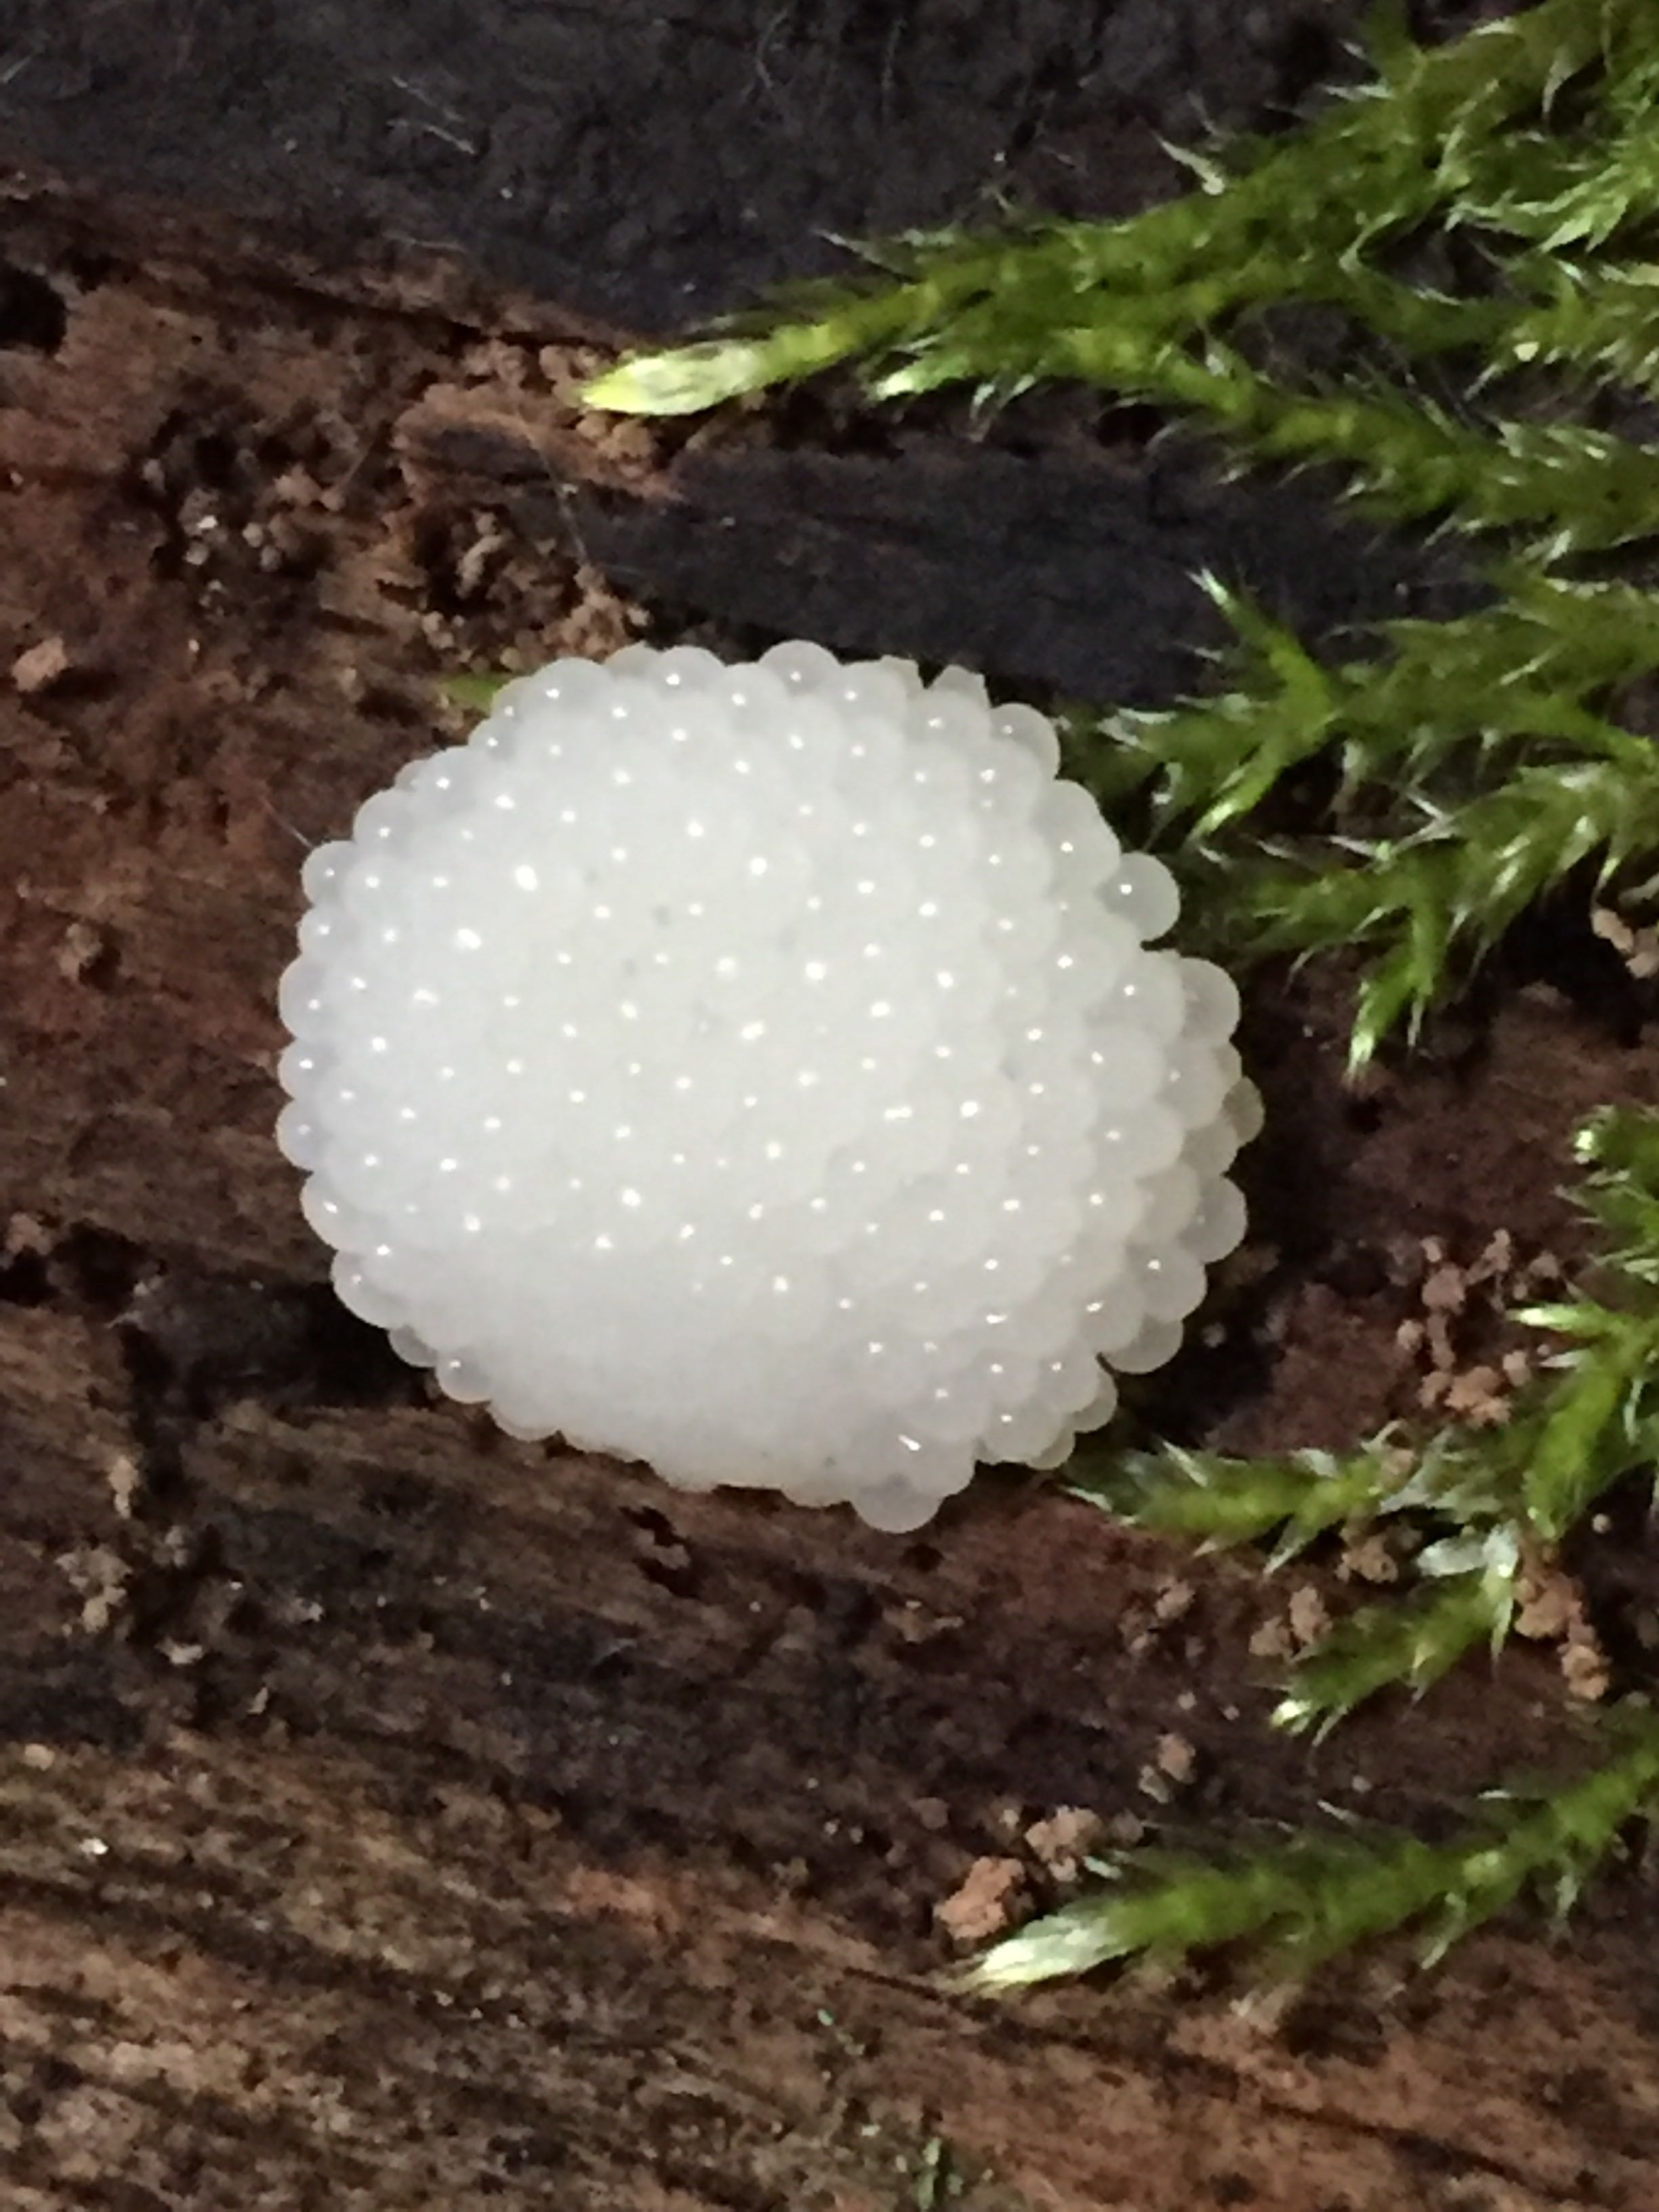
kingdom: Protozoa
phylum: Mycetozoa
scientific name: Mycetozoa
